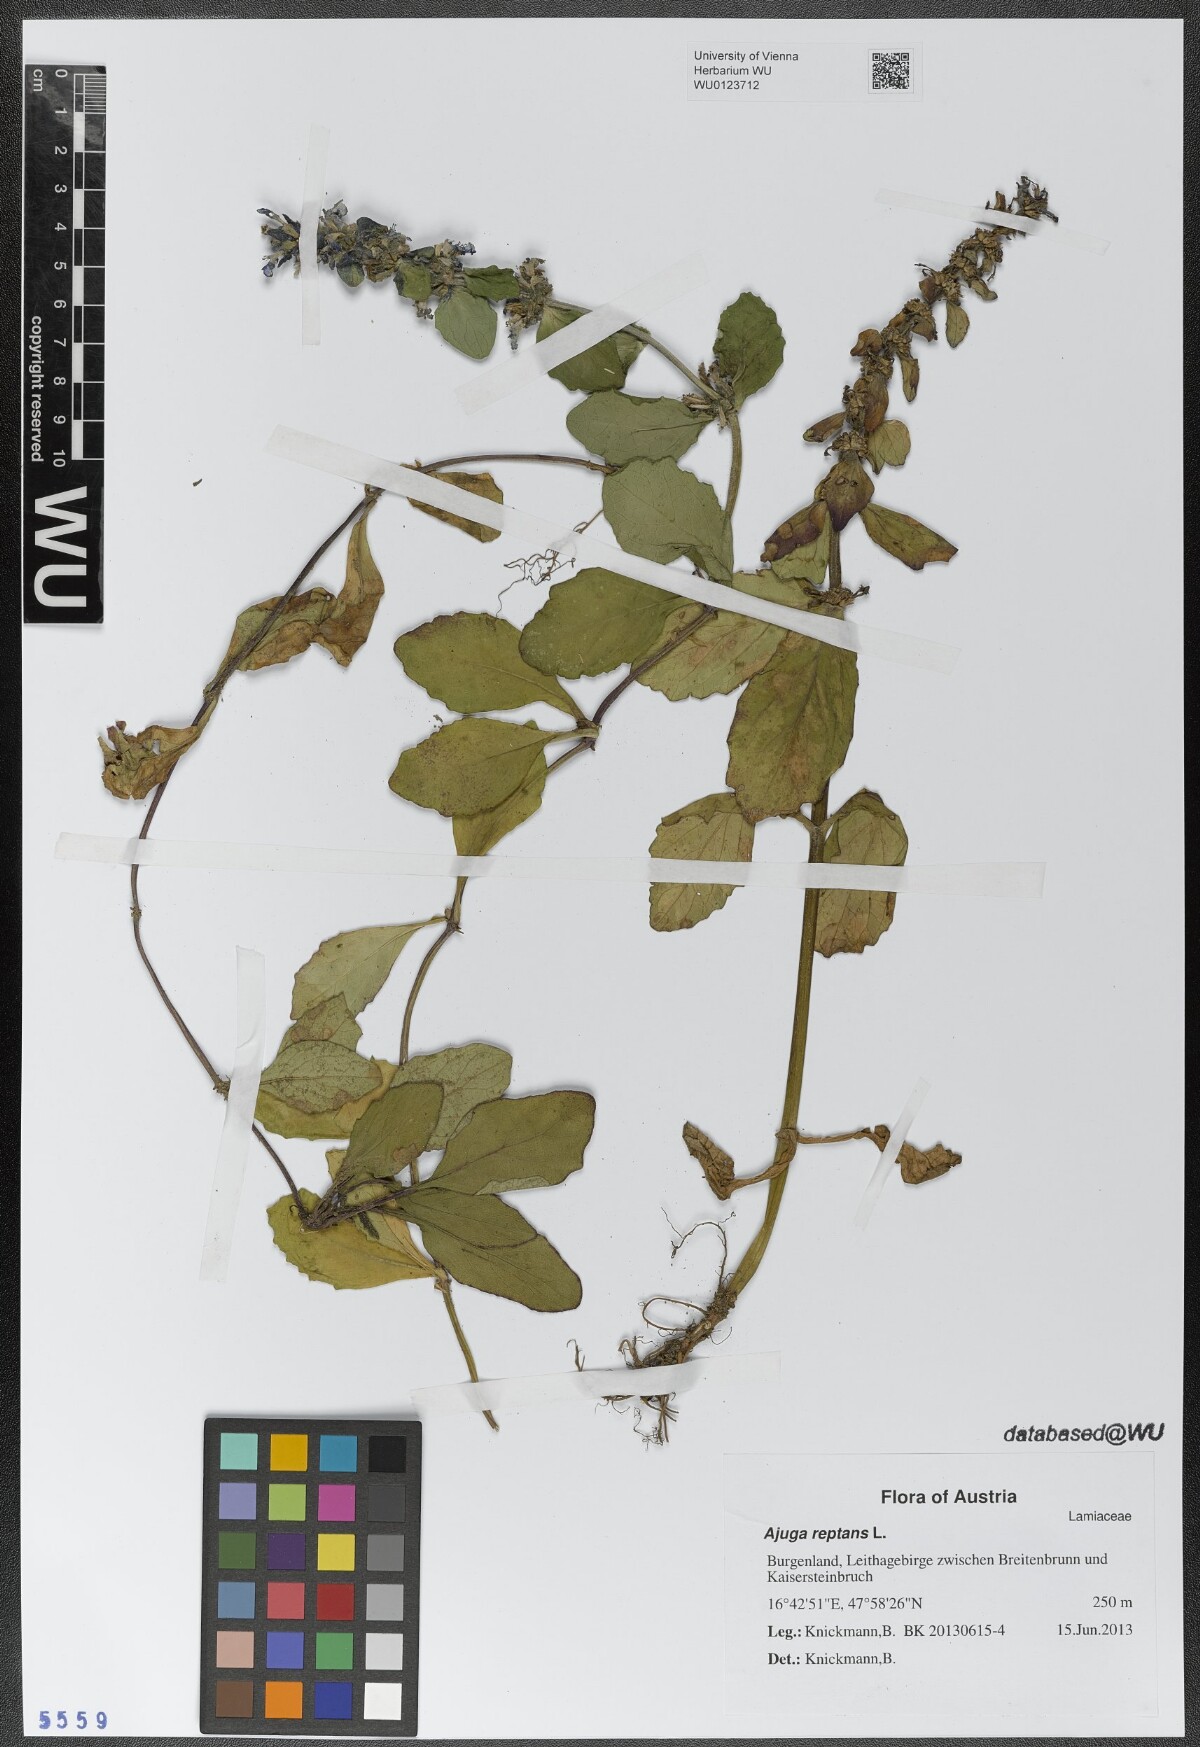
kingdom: Plantae
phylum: Tracheophyta
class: Magnoliopsida
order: Lamiales
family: Lamiaceae
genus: Ajuga
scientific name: Ajuga reptans
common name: Bugle
